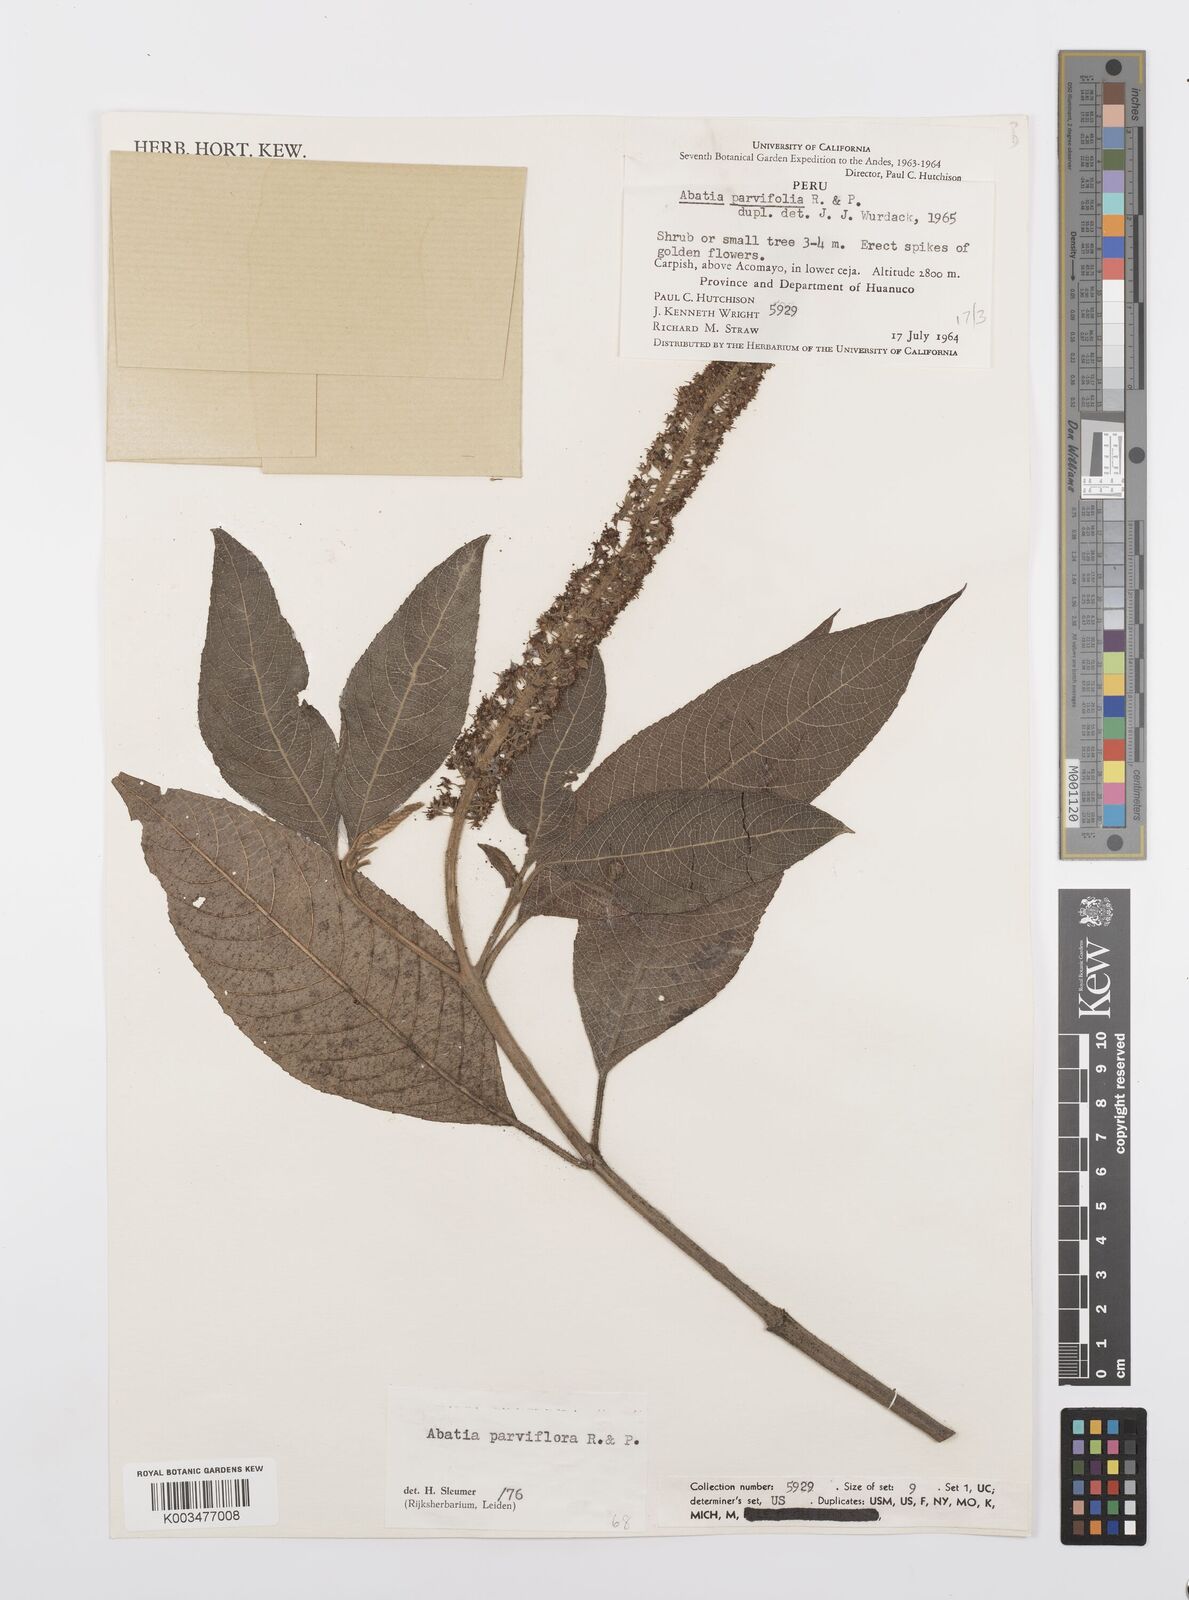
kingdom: Plantae
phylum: Tracheophyta
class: Magnoliopsida
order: Malpighiales
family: Salicaceae
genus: Abatia
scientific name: Abatia parviflora
